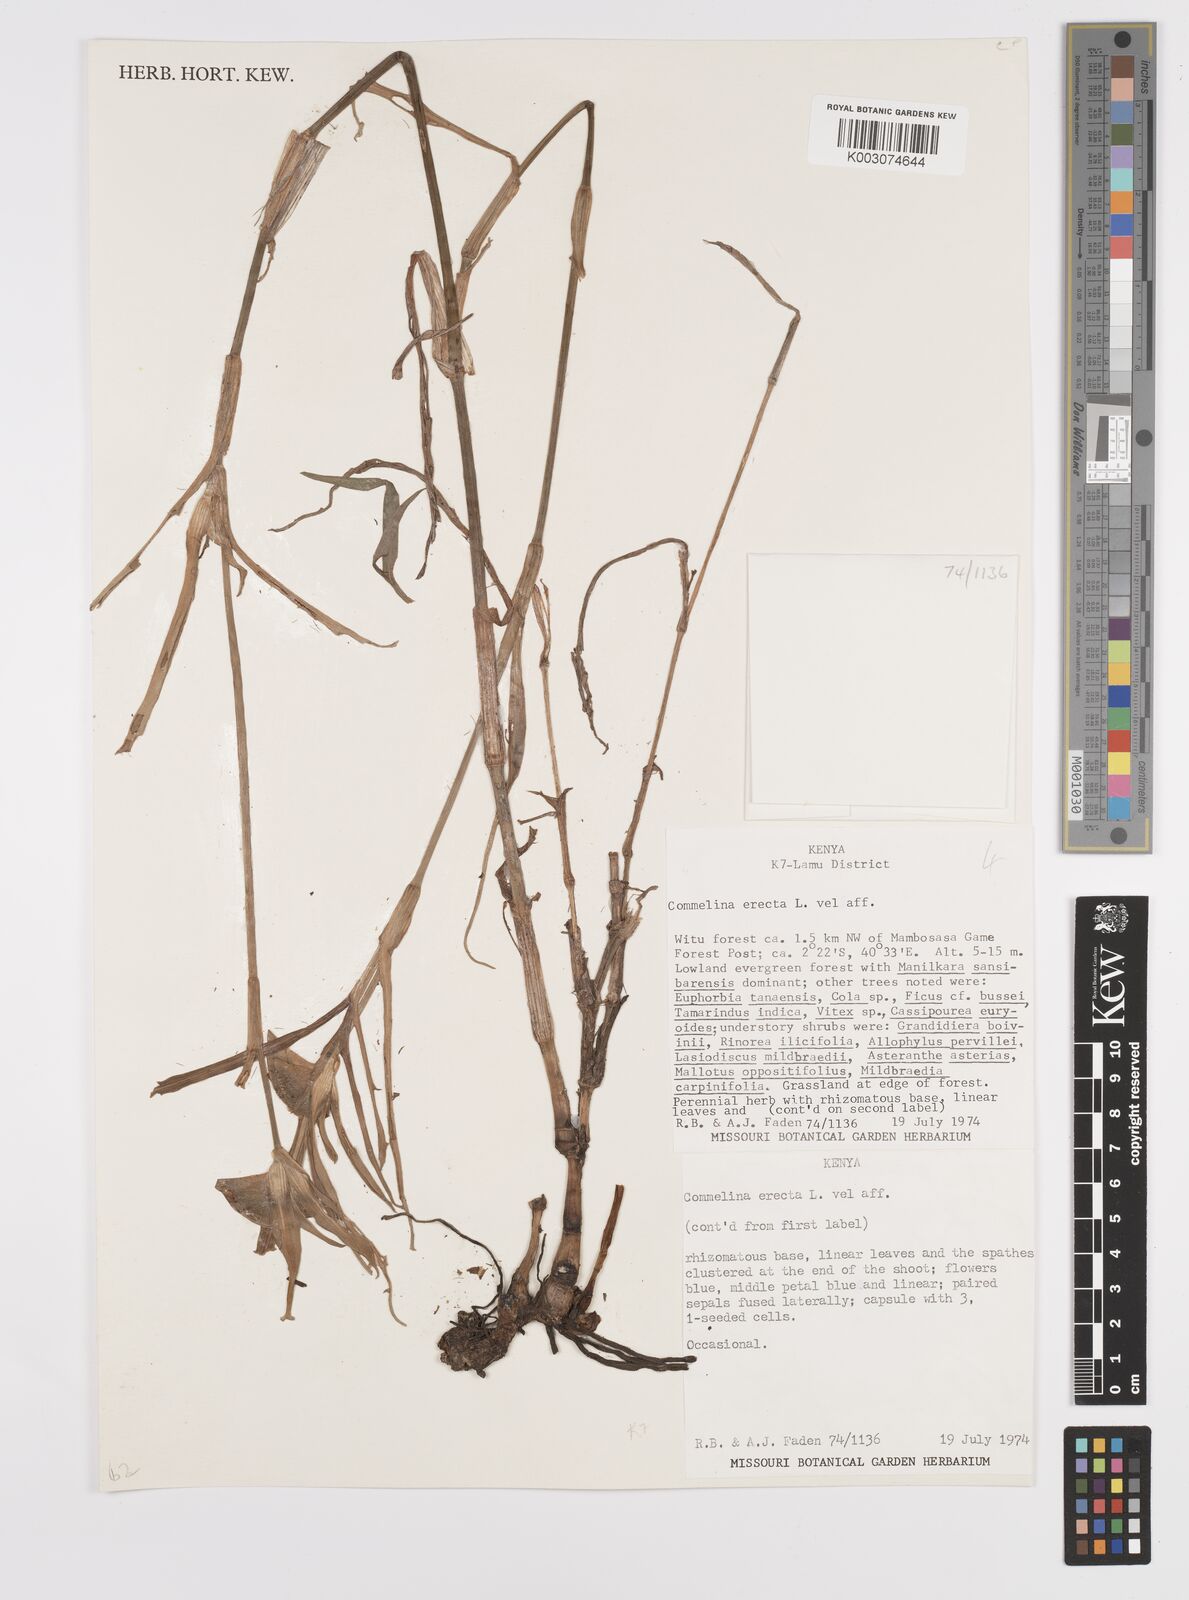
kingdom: Plantae
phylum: Tracheophyta
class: Liliopsida
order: Commelinales
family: Commelinaceae
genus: Commelina
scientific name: Commelina erecta
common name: Blousel blommetjie
